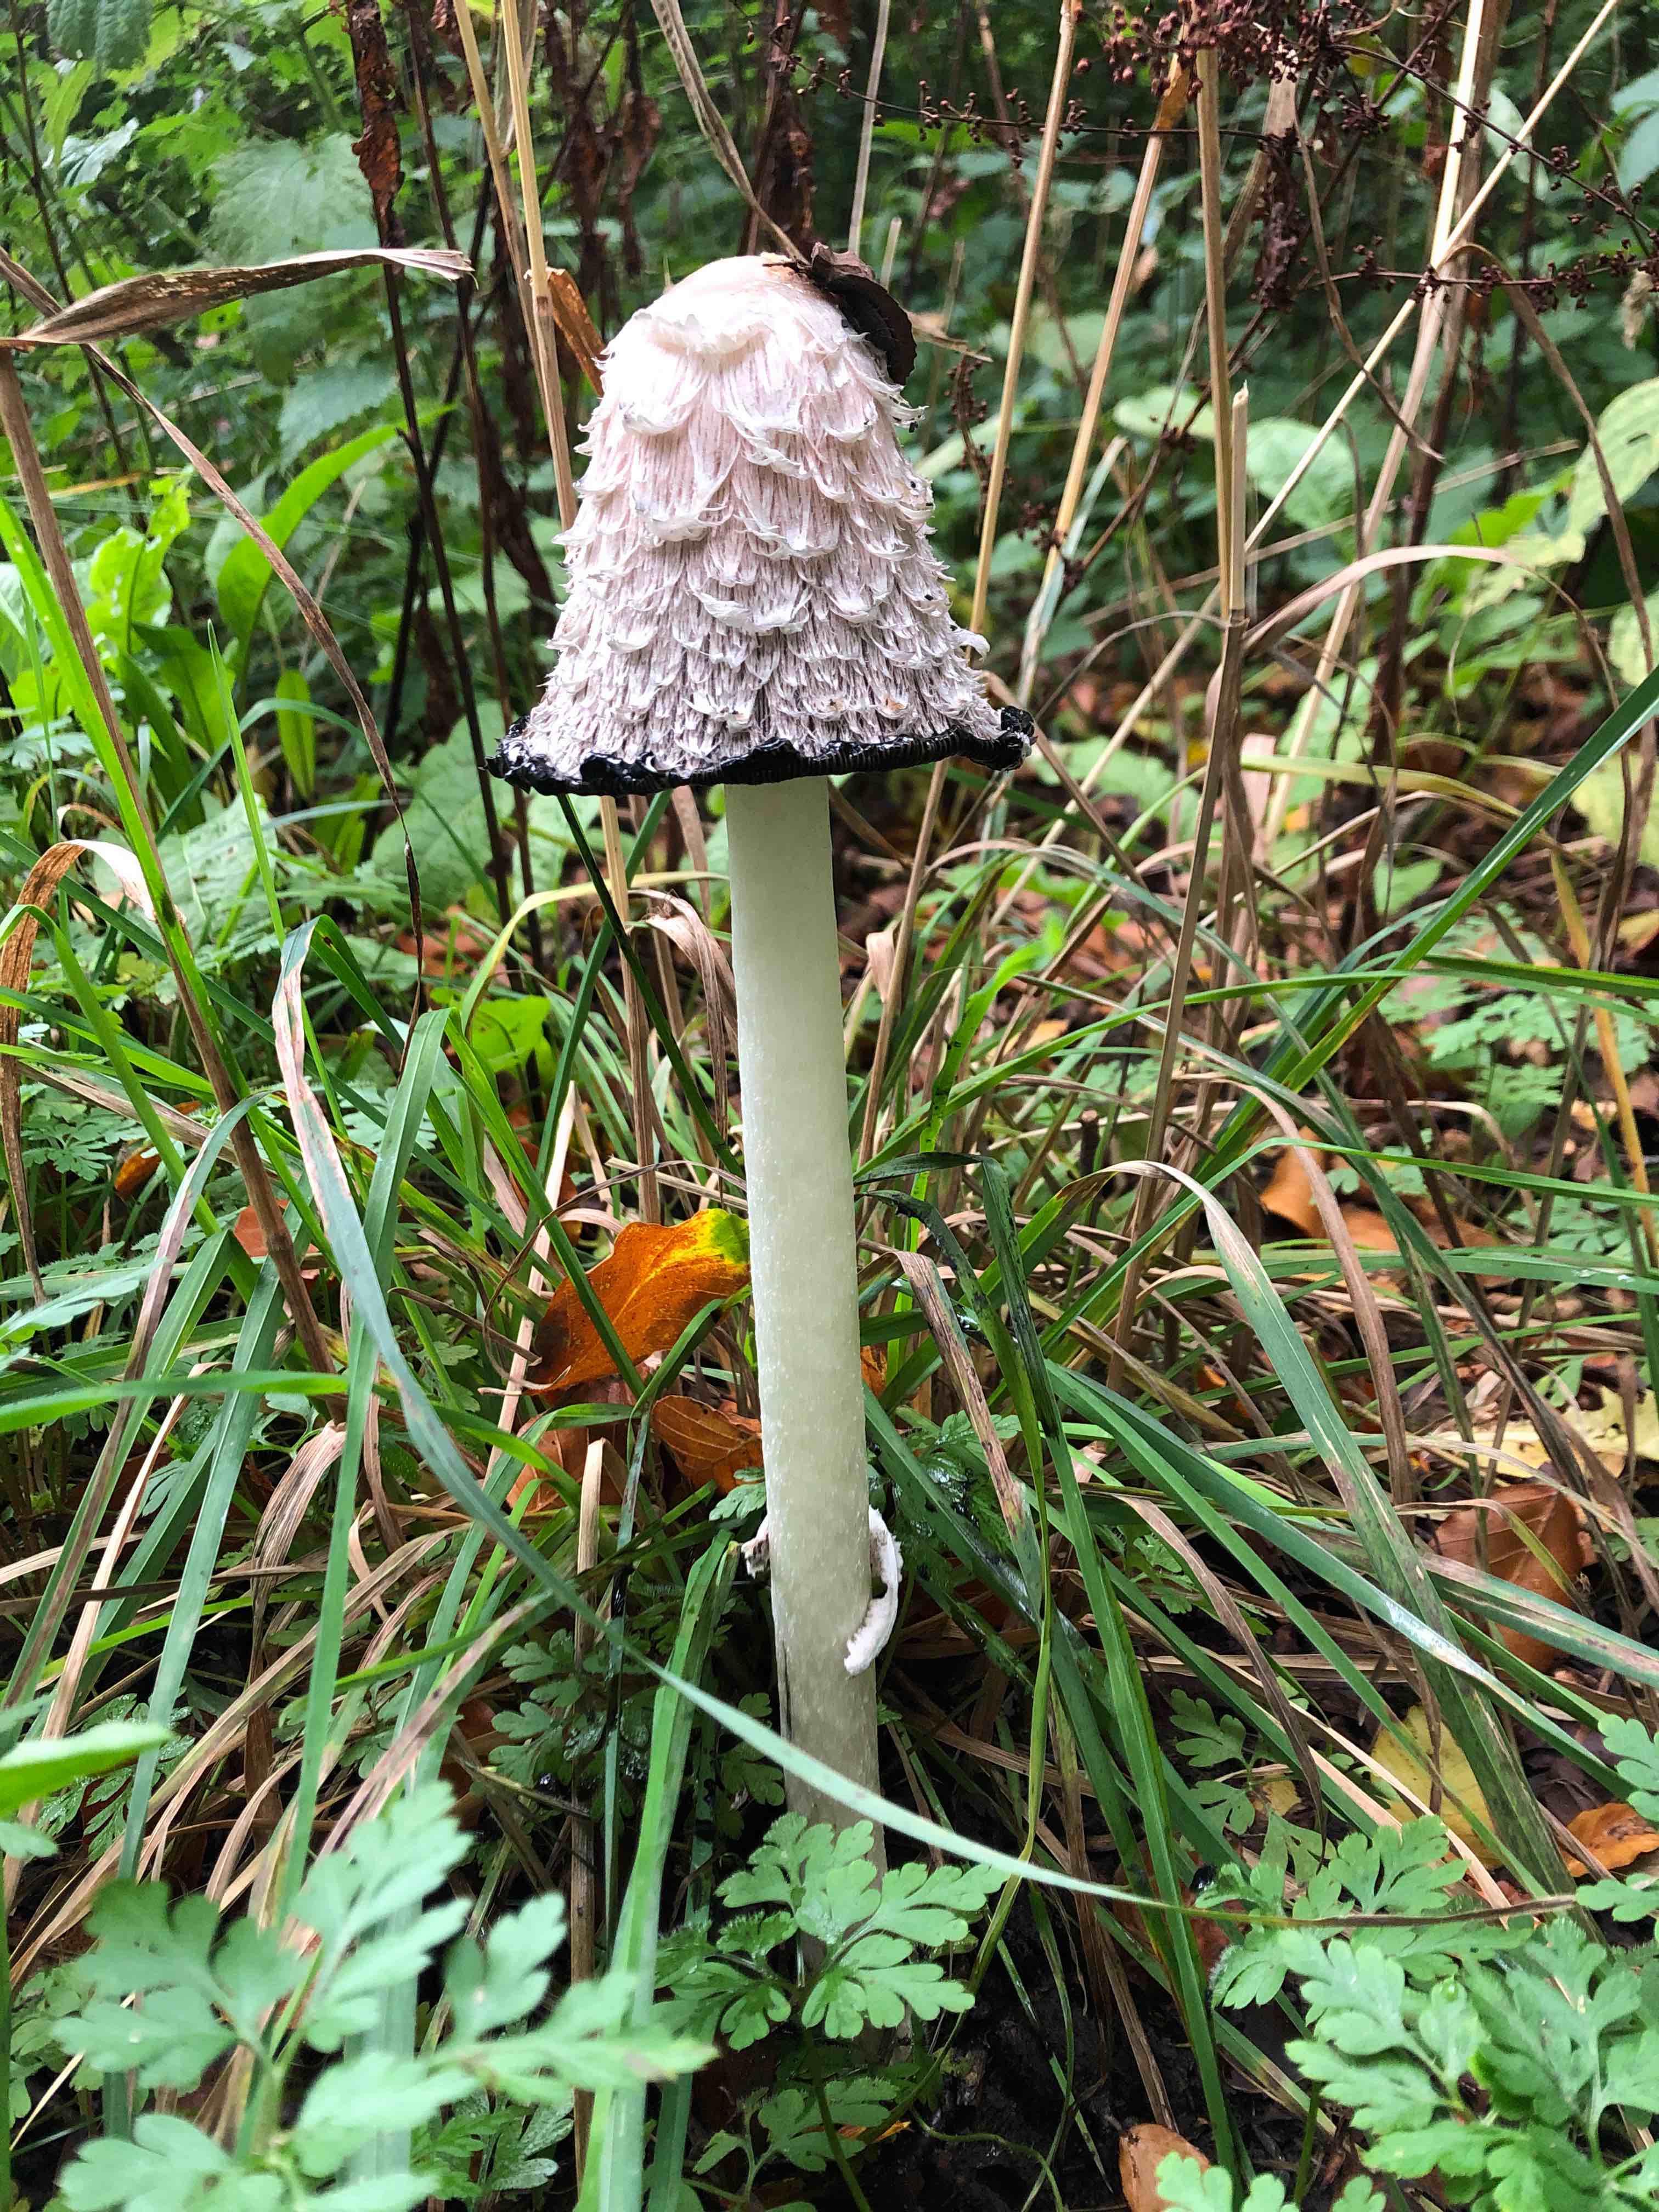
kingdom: Fungi
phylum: Basidiomycota
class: Agaricomycetes
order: Agaricales
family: Agaricaceae
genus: Coprinus
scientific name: Coprinus comatus
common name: stor parykhat
